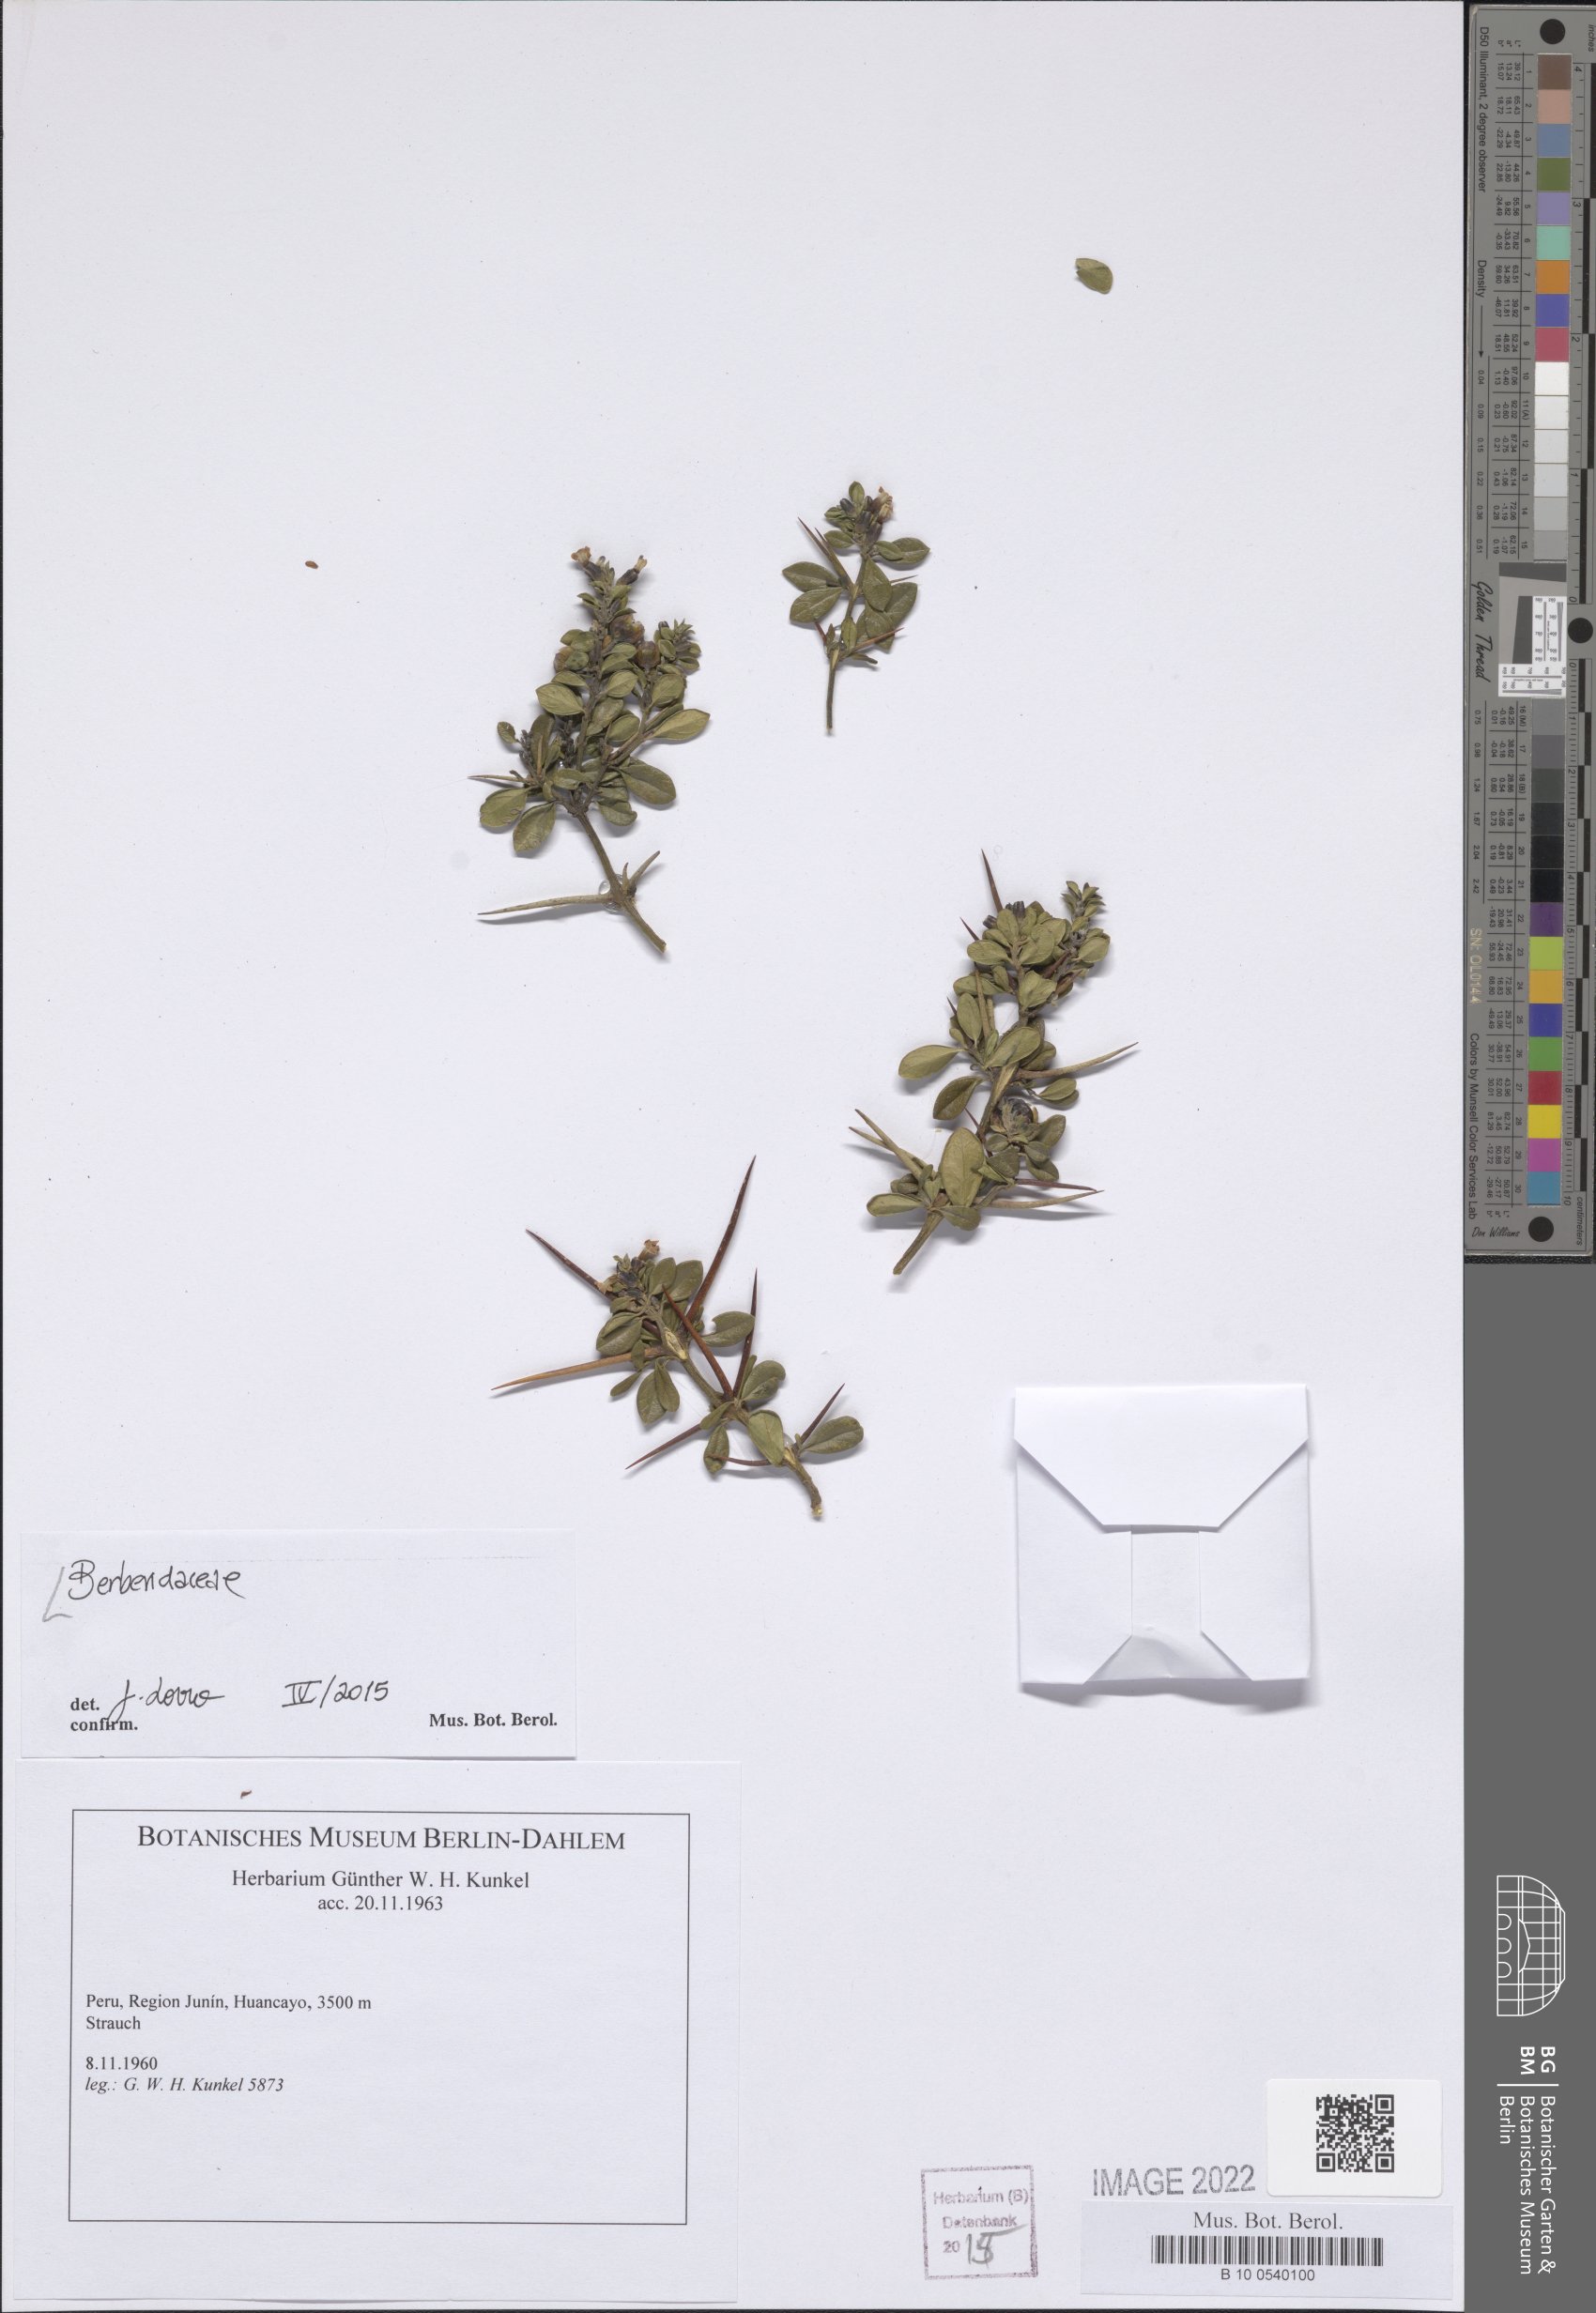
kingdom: Plantae
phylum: Tracheophyta
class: Magnoliopsida
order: Ranunculales
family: Berberidaceae
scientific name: Berberidaceae
